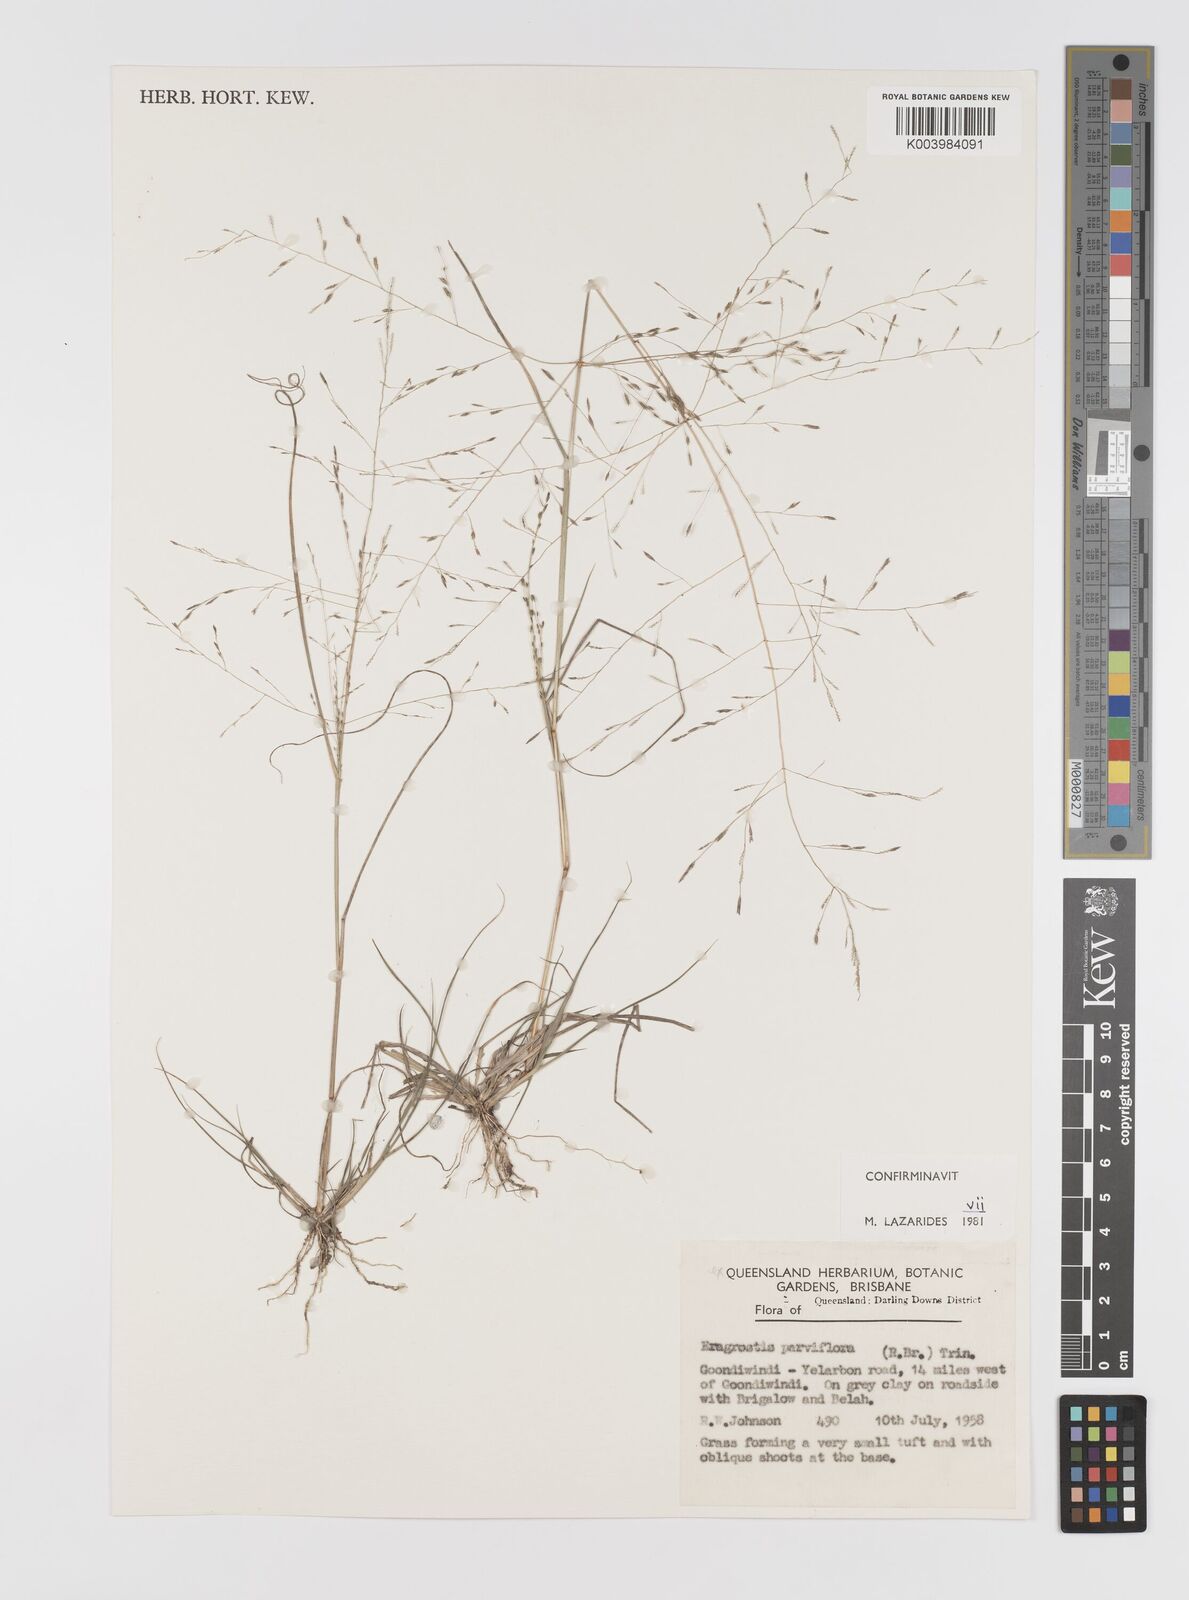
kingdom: Plantae
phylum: Tracheophyta
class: Liliopsida
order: Poales
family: Poaceae
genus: Eragrostis
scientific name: Eragrostis parviflora
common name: Weeping love-grass
